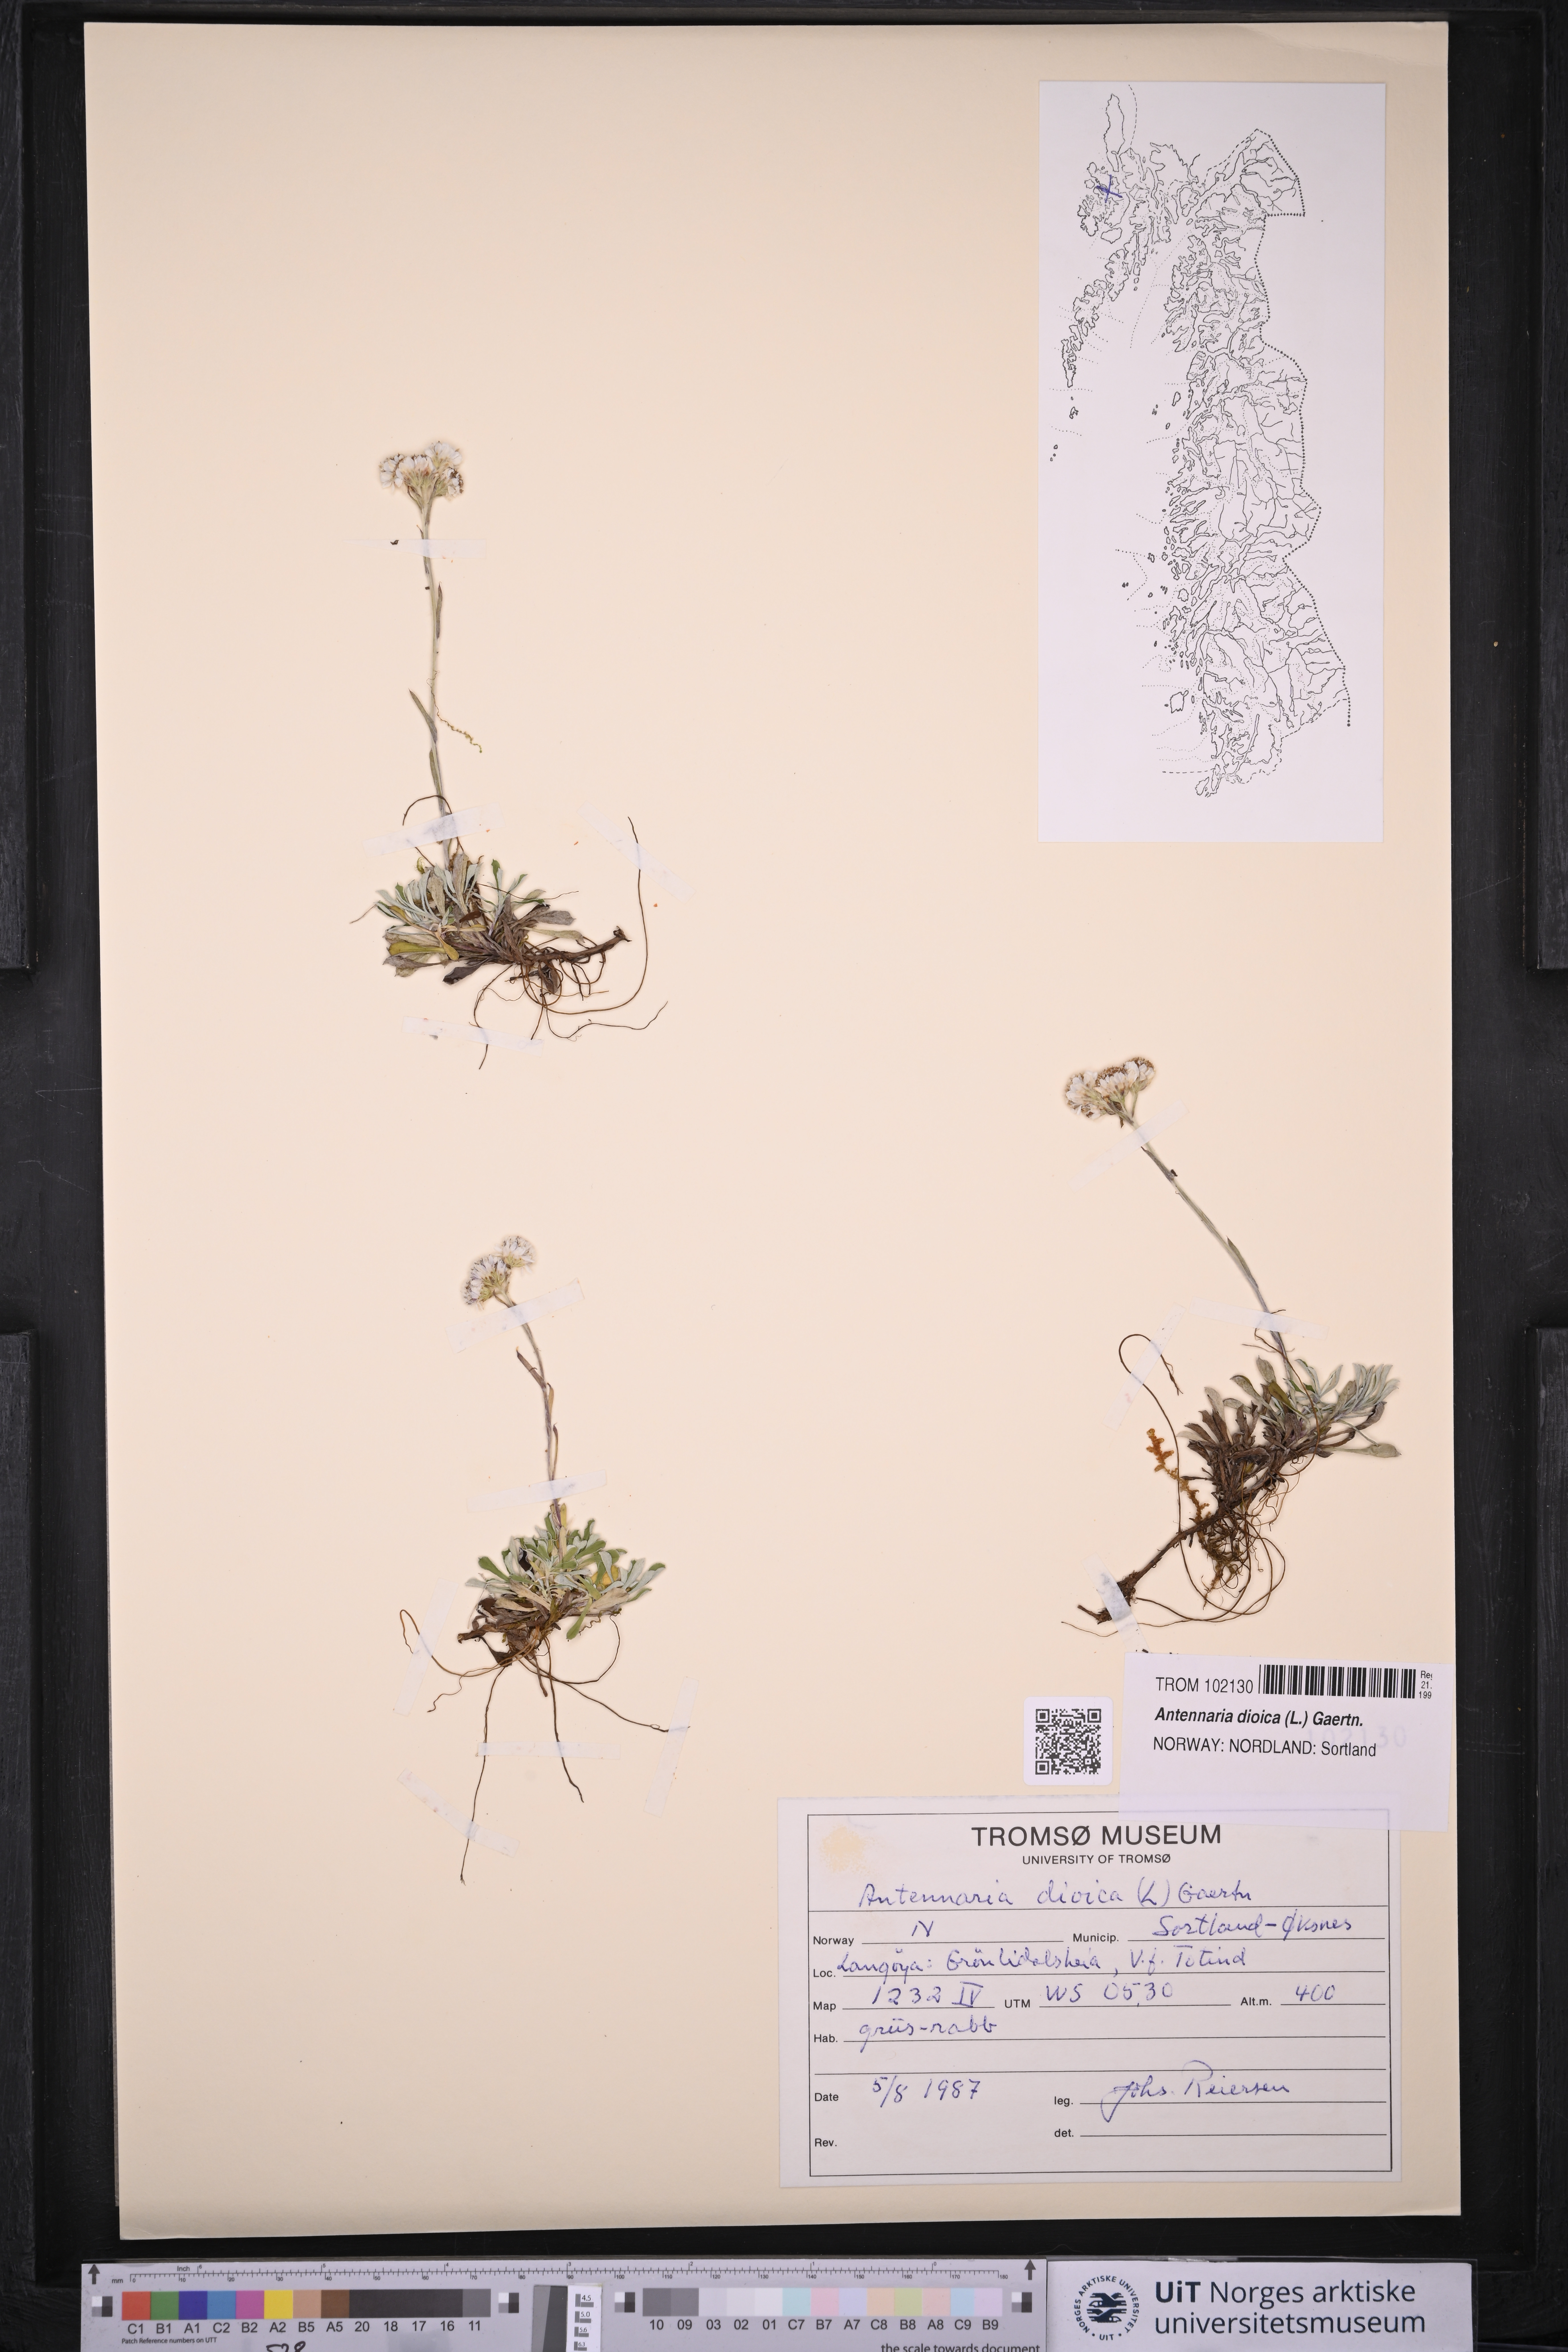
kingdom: Plantae
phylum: Tracheophyta
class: Magnoliopsida
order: Asterales
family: Asteraceae
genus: Antennaria
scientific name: Antennaria dioica
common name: Mountain everlasting
